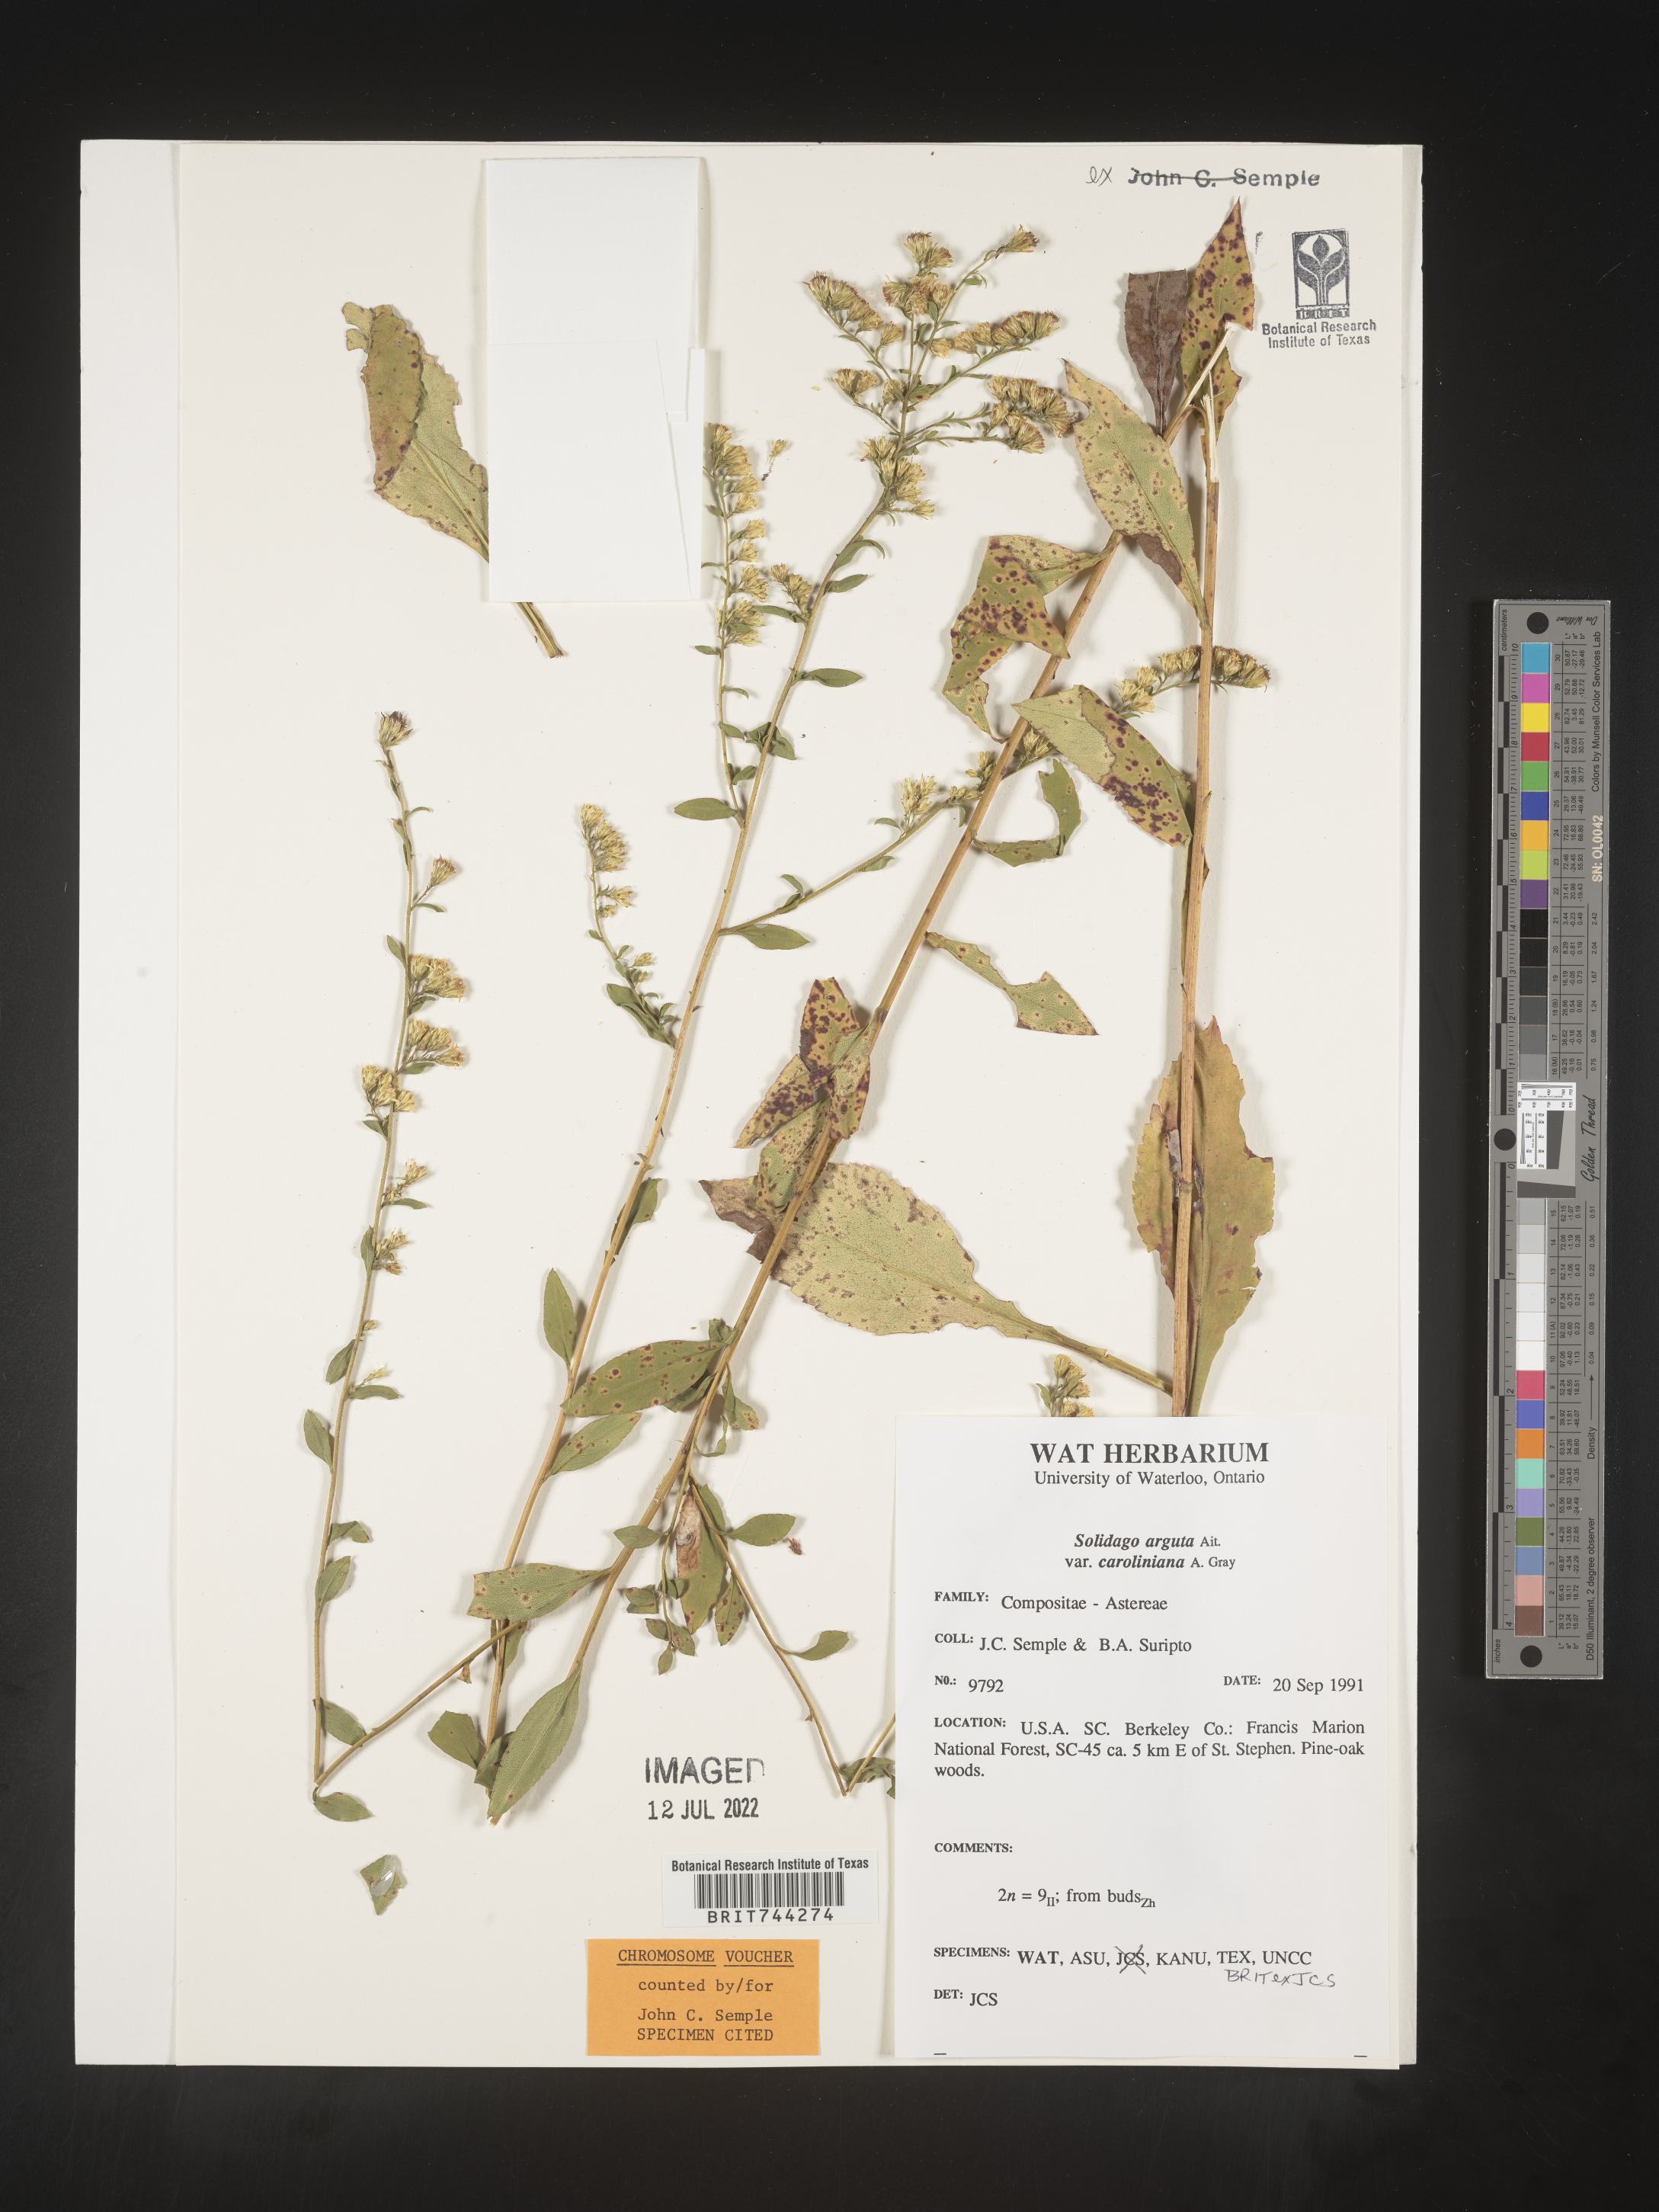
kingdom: Plantae
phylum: Tracheophyta
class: Magnoliopsida
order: Asterales
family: Asteraceae
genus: Solidago
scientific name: Solidago vaseyi
